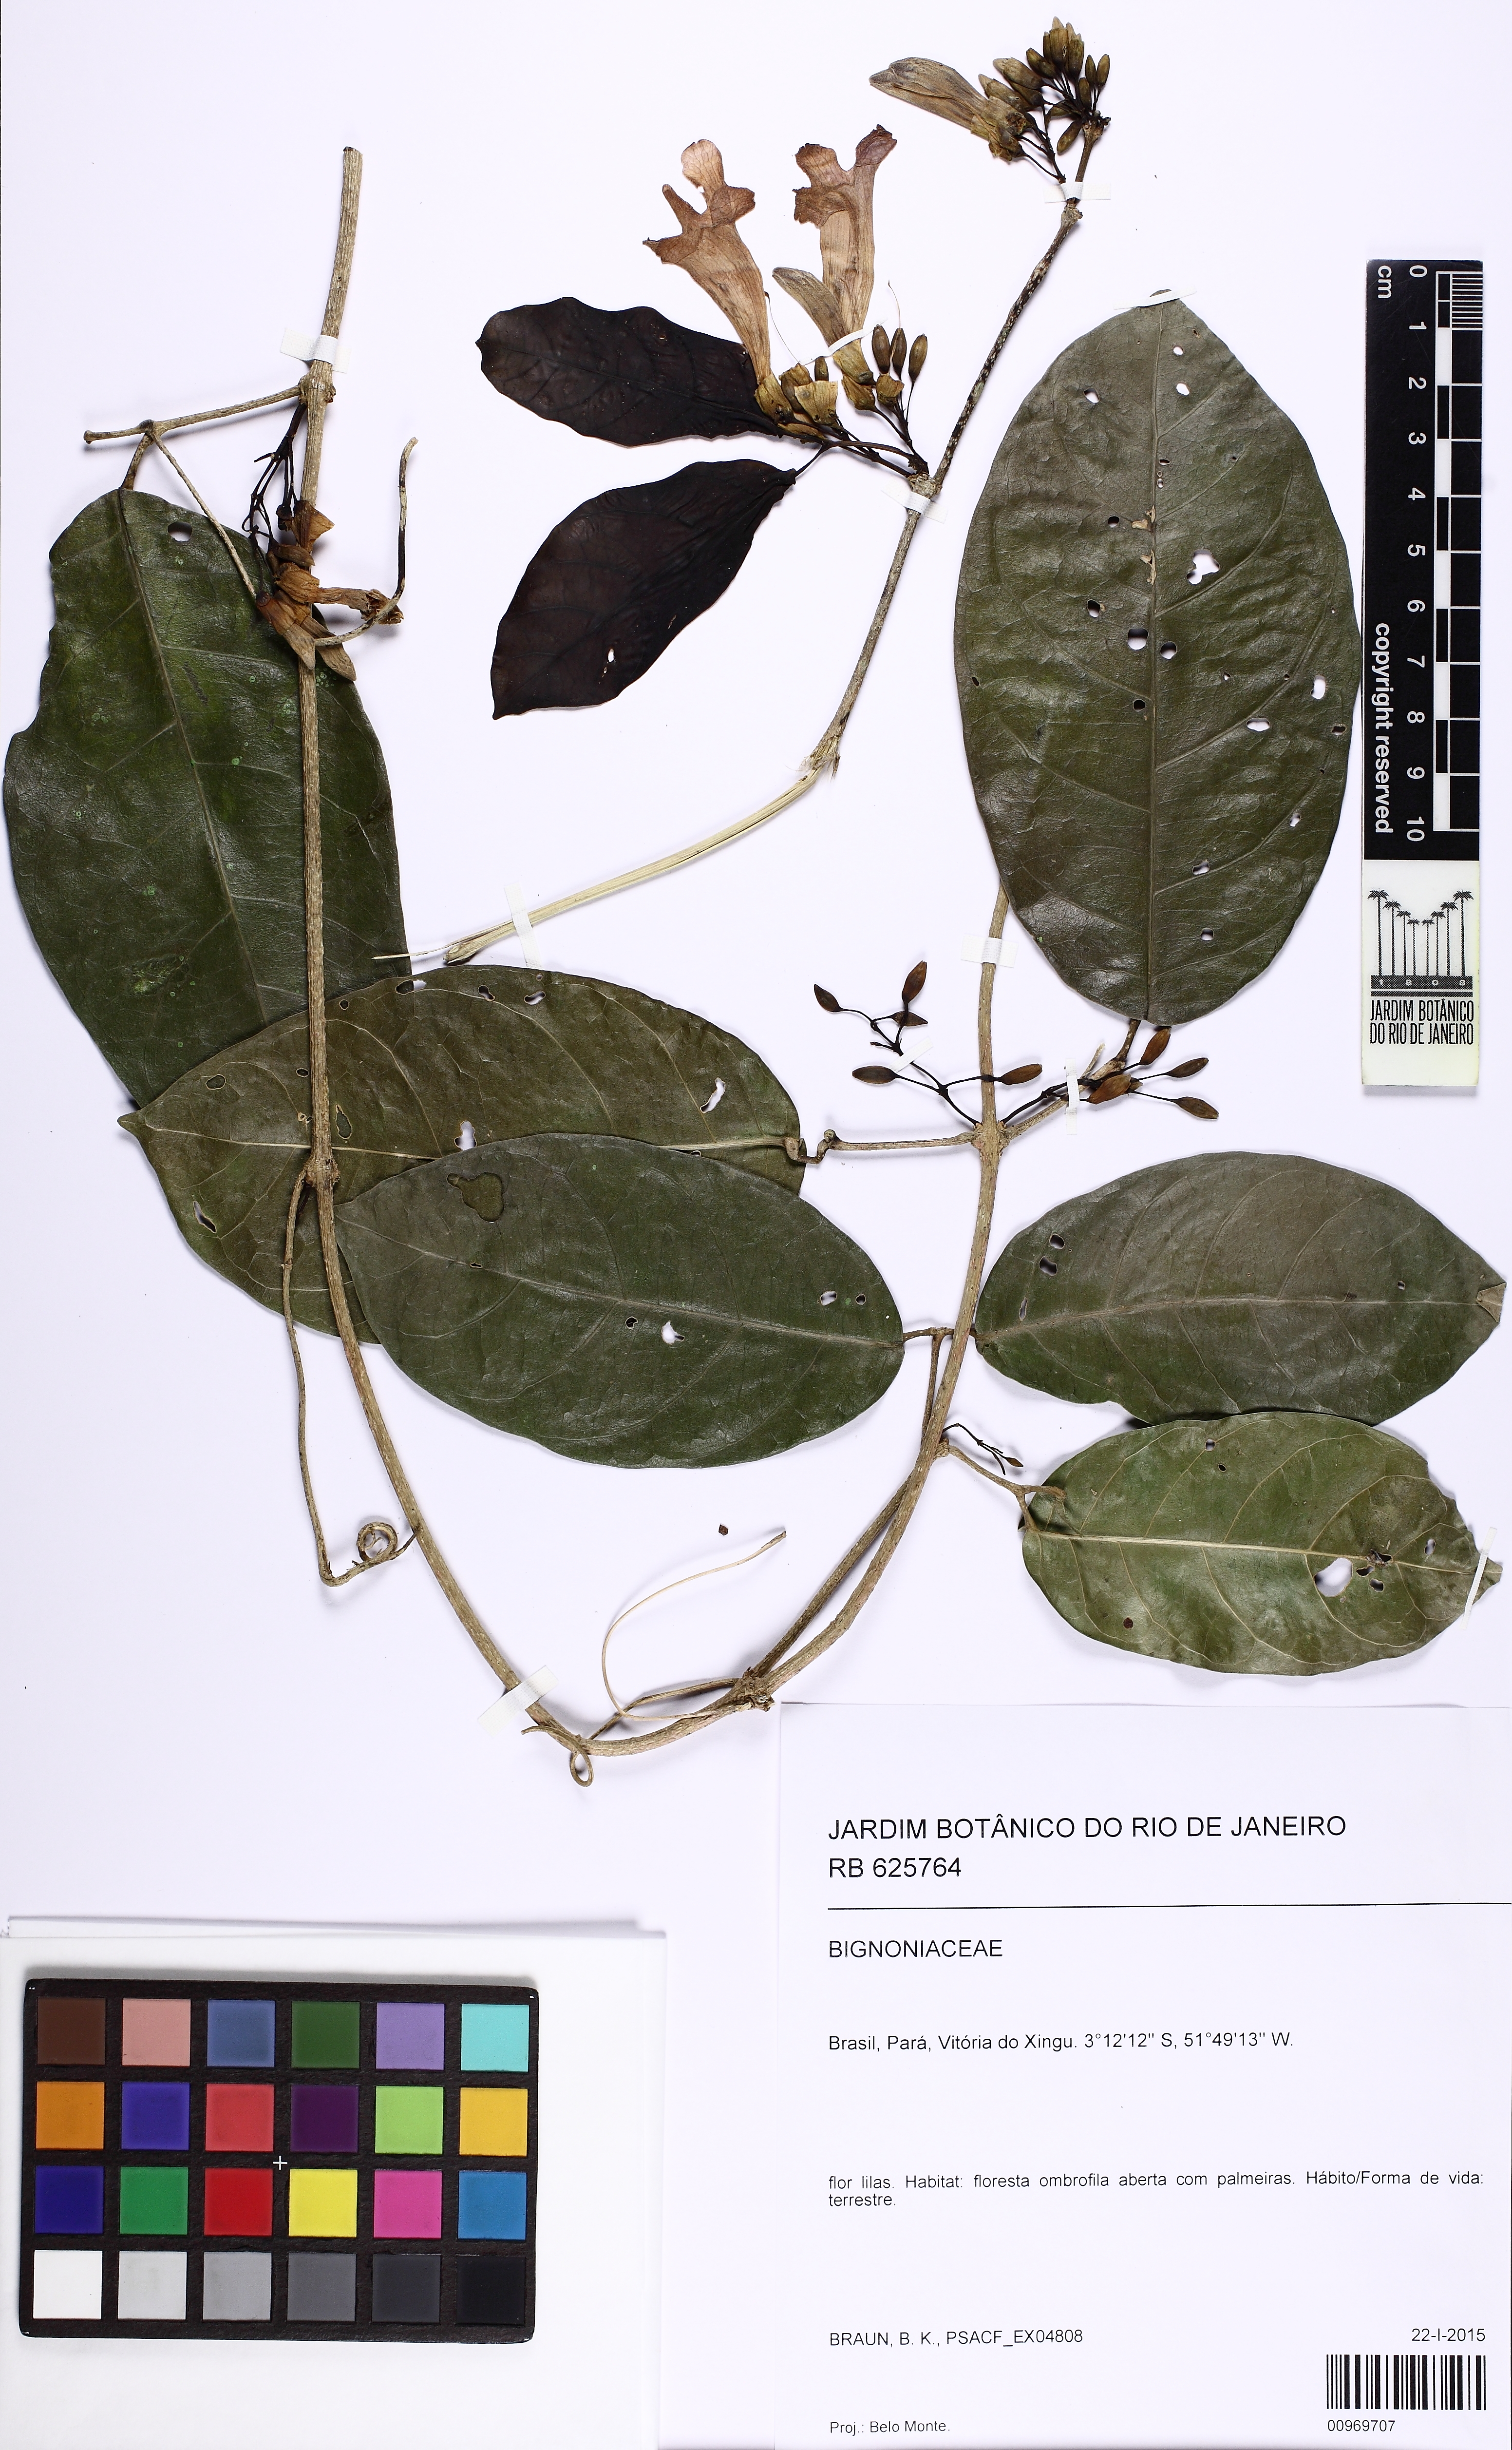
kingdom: Plantae
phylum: Tracheophyta
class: Magnoliopsida
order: Lamiales
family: Bignoniaceae
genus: Fridericia
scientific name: Fridericia mutabilis
